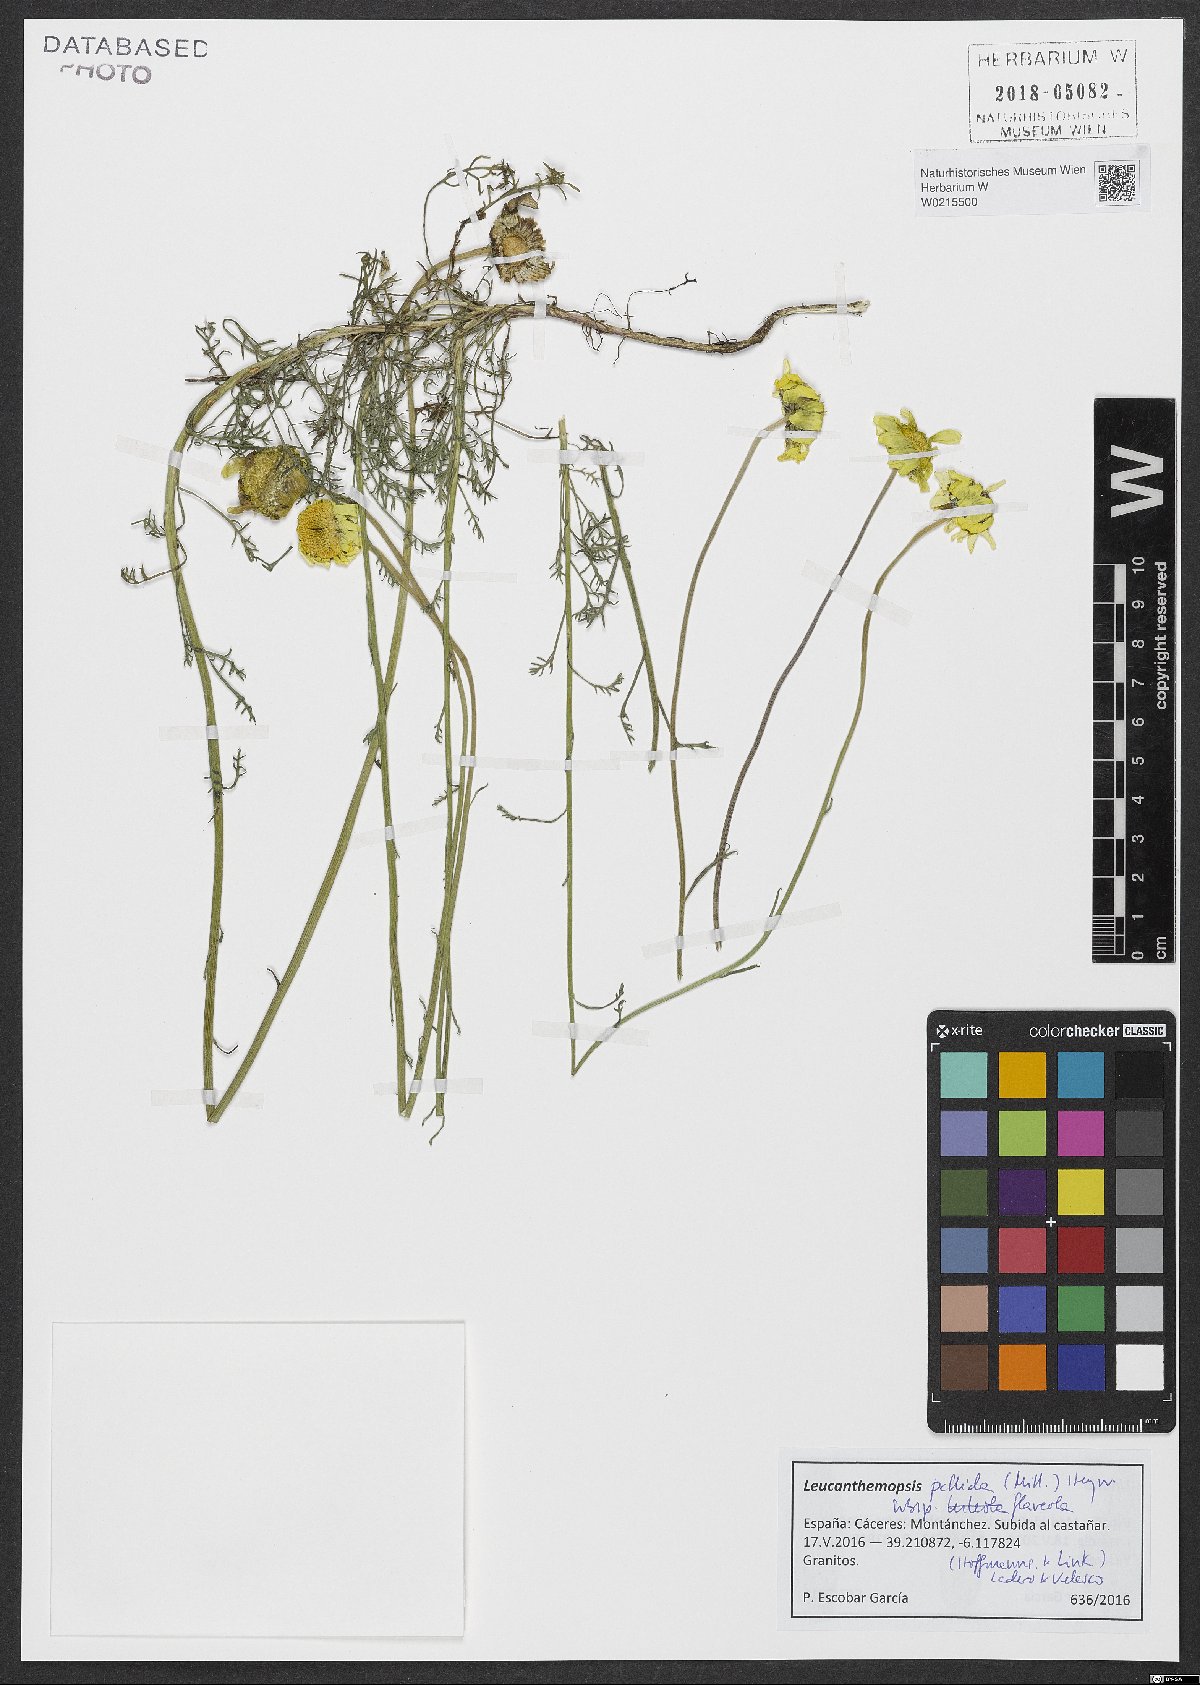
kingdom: Plantae
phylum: Tracheophyta
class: Magnoliopsida
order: Asterales
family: Asteraceae
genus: Leucanthemopsis
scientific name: Leucanthemopsis flaveola
